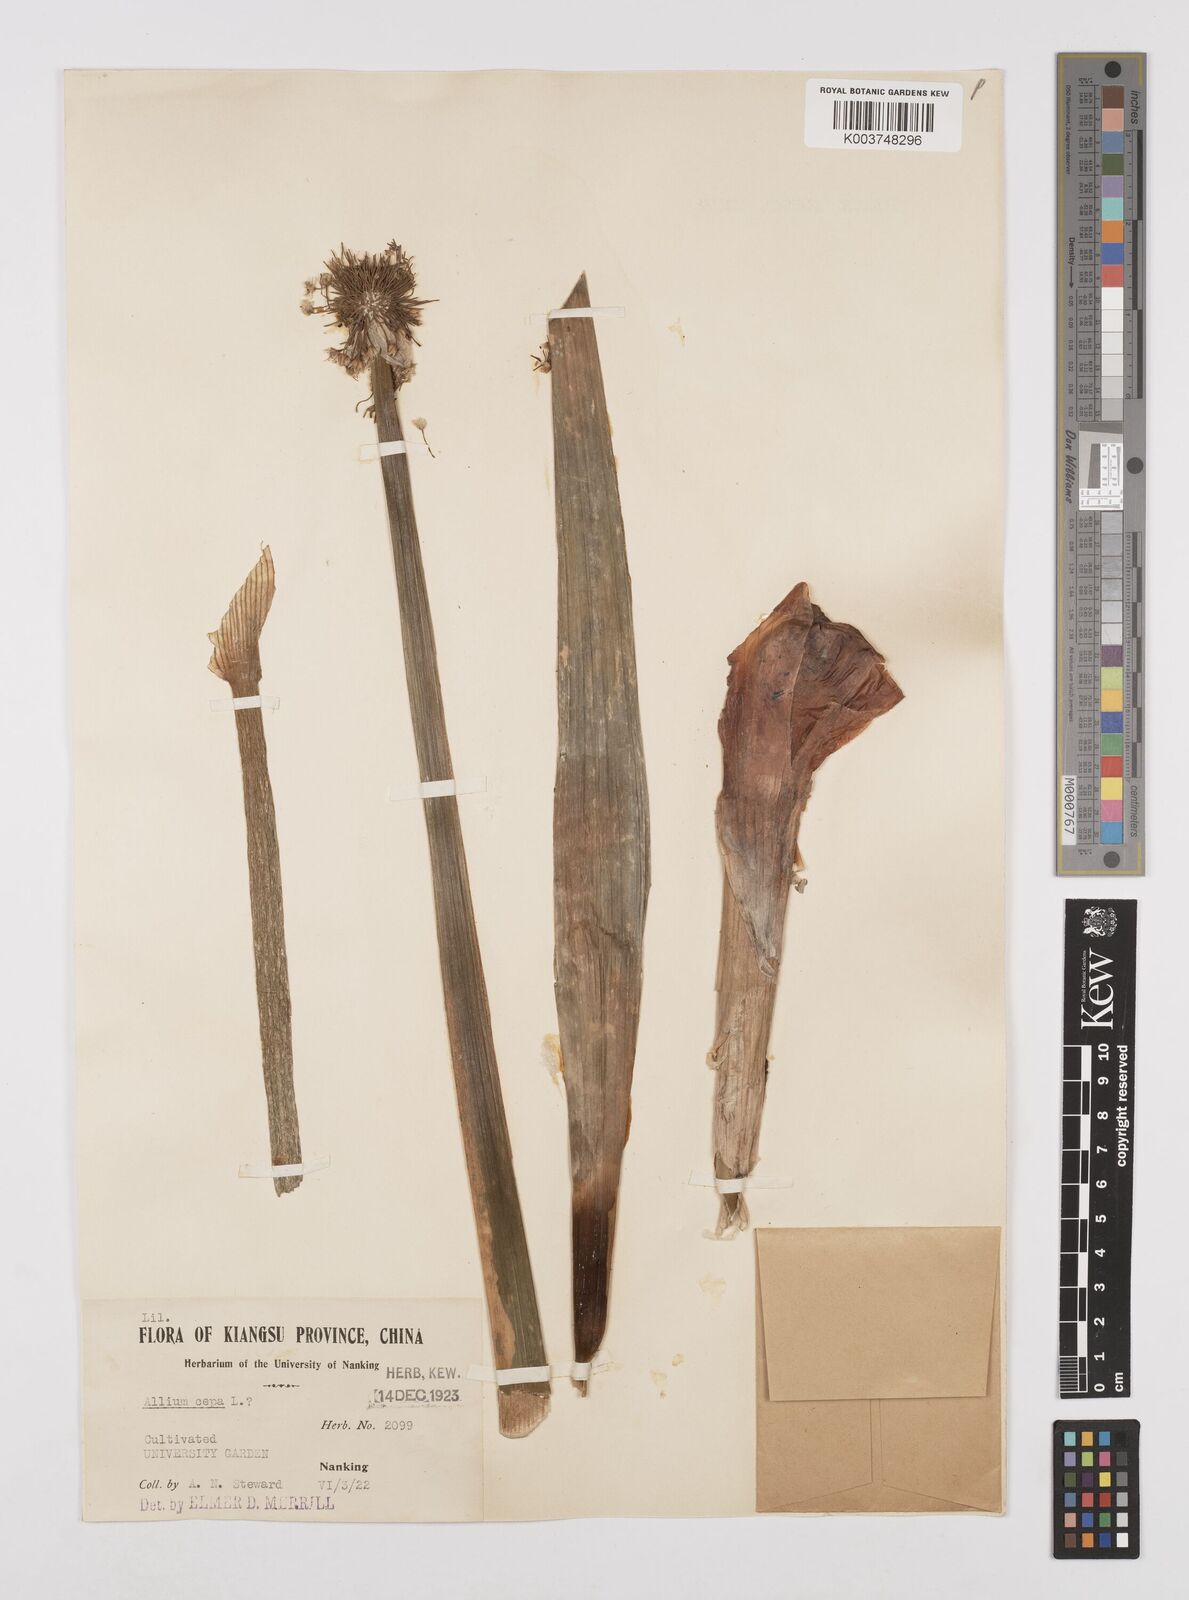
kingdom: Plantae
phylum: Tracheophyta
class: Liliopsida
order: Asparagales
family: Amaryllidaceae
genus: Allium
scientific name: Allium cepa
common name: Onion
